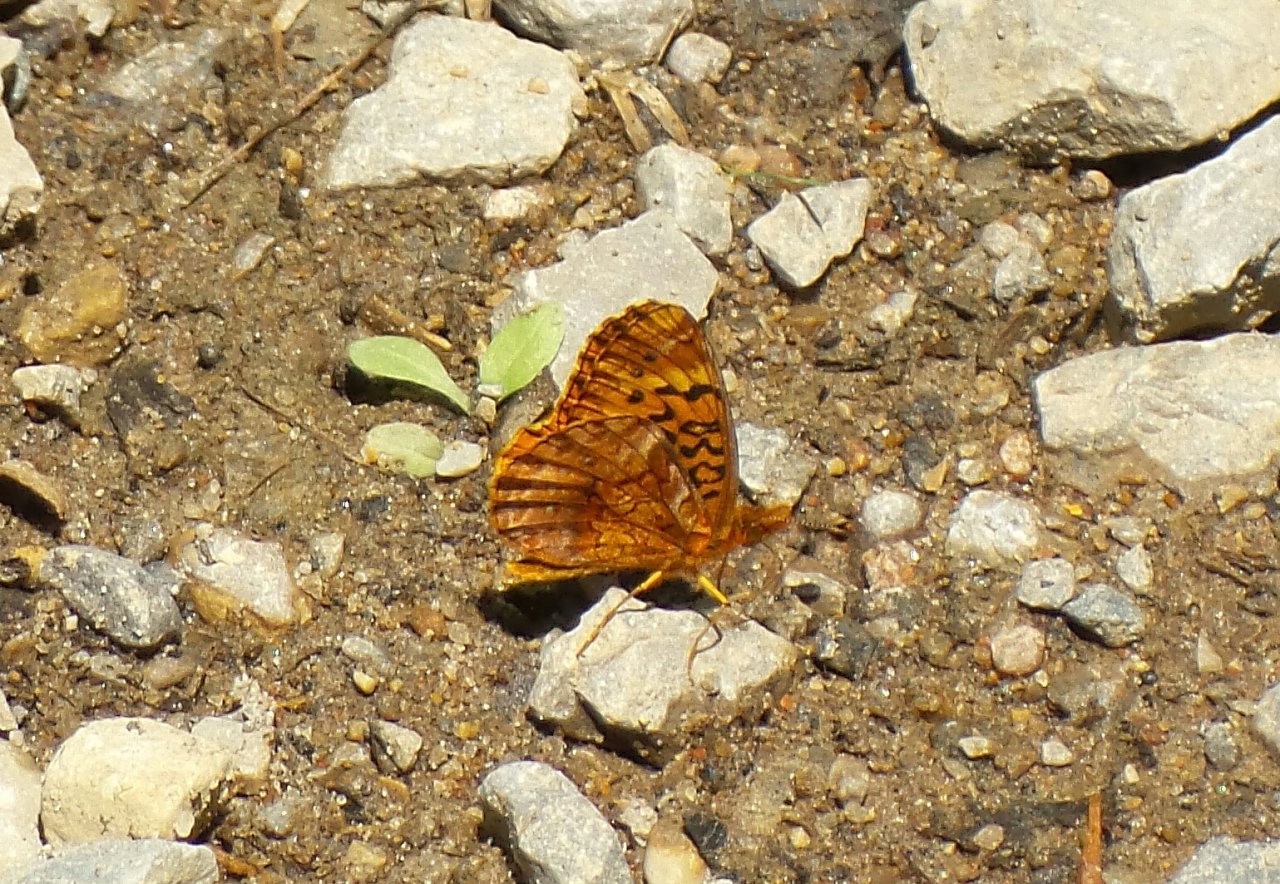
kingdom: Animalia
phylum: Arthropoda
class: Insecta
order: Lepidoptera
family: Nymphalidae
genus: Clossiana
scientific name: Clossiana toddi
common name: Meadow Fritillary
